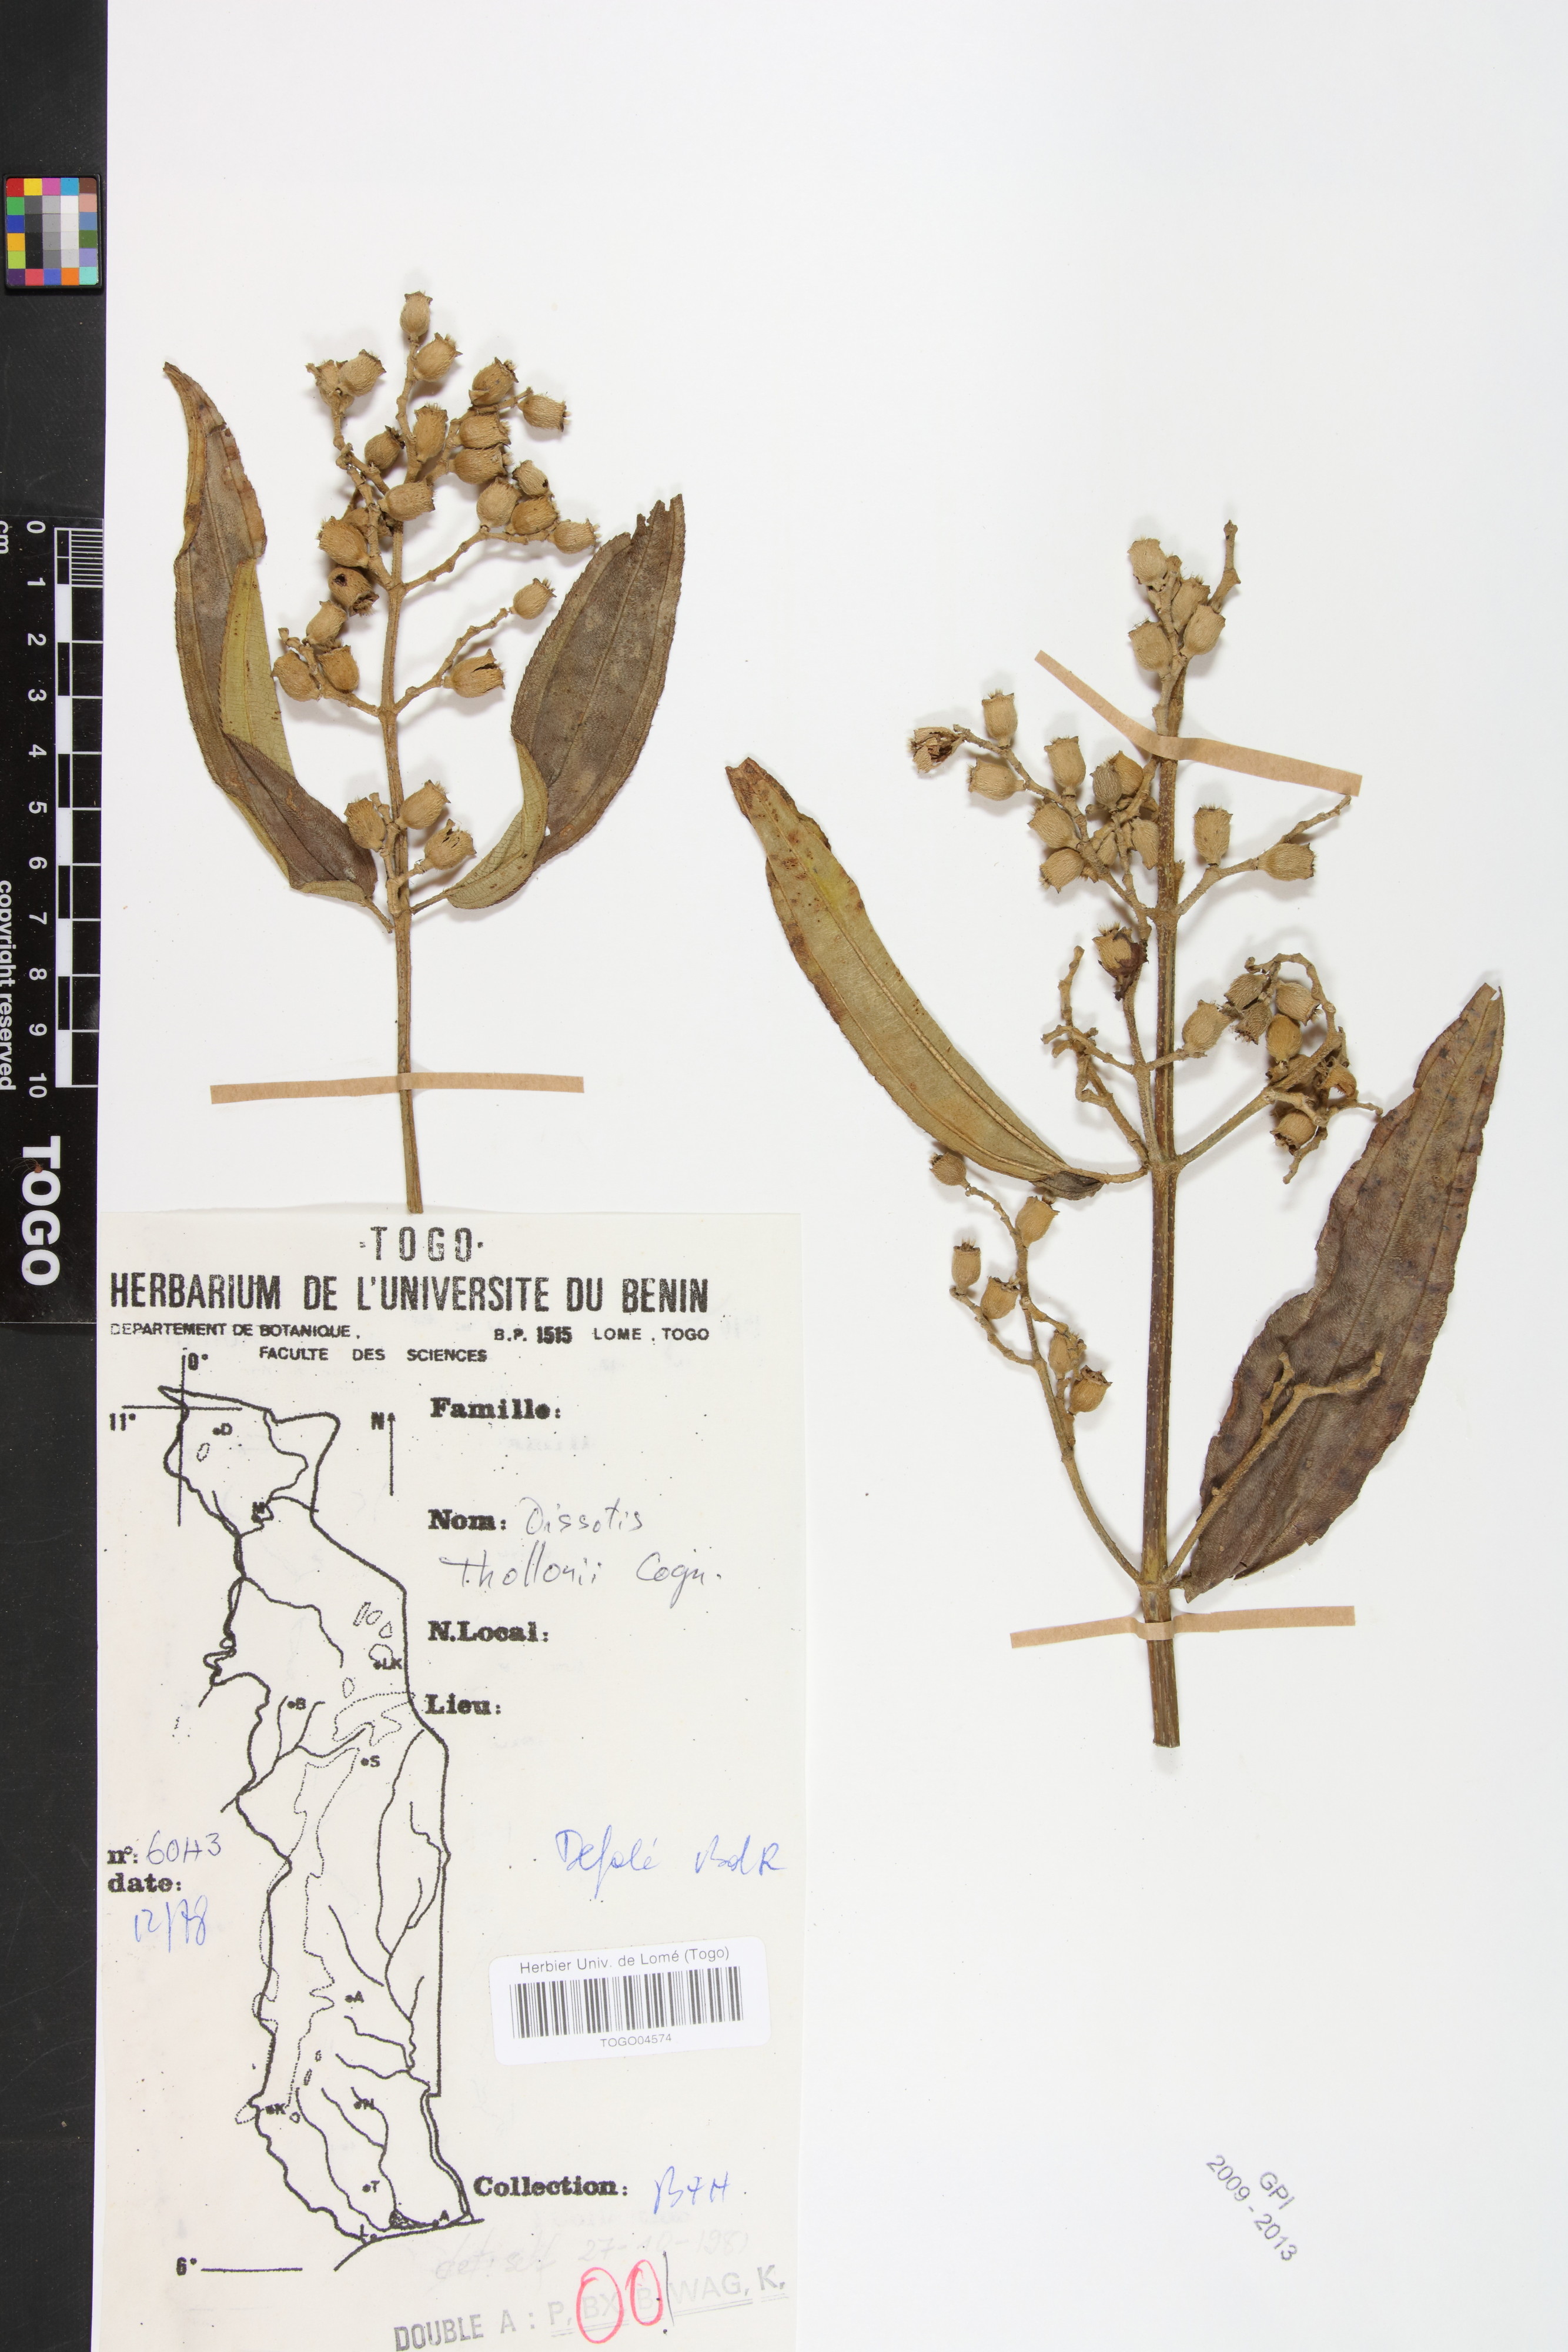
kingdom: Plantae
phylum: Tracheophyta
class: Magnoliopsida
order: Myrtales
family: Melastomataceae
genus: Antherotoma
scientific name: Antherotoma irvingiana
